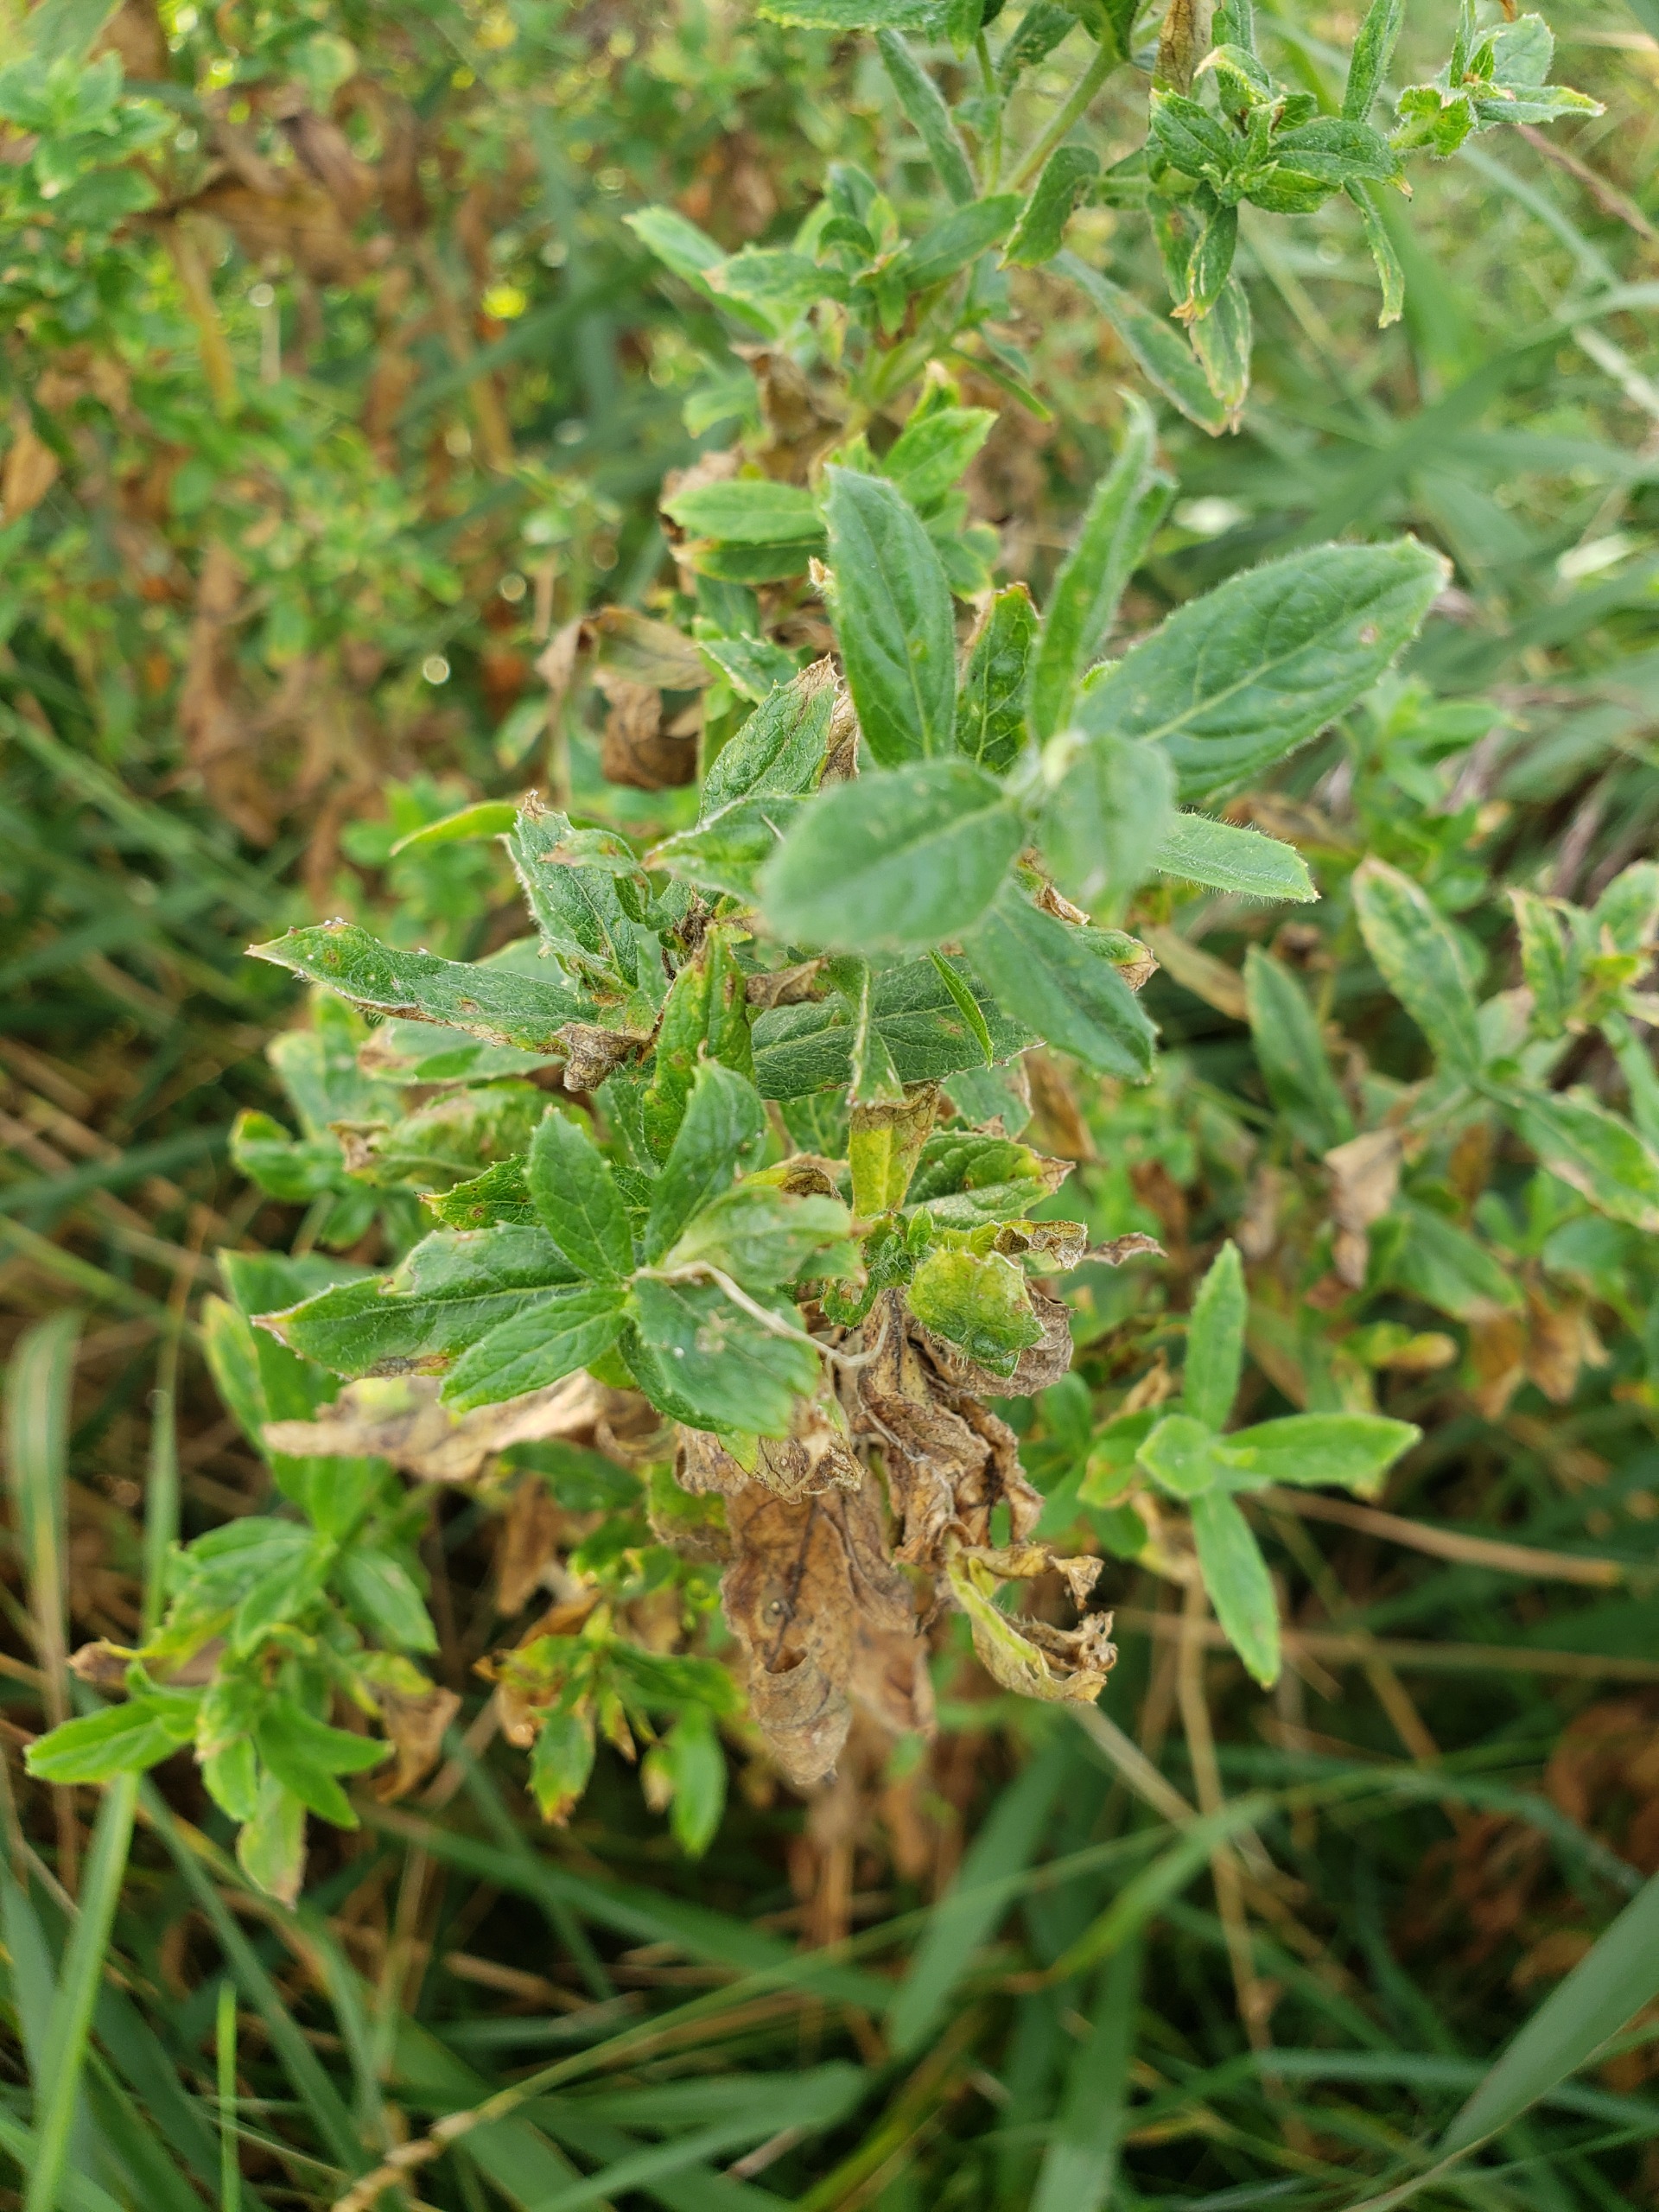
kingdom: Plantae
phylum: Tracheophyta
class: Magnoliopsida
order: Myrtales
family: Onagraceae
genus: Epilobium
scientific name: Epilobium hirsutum
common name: Lådden dueurt
